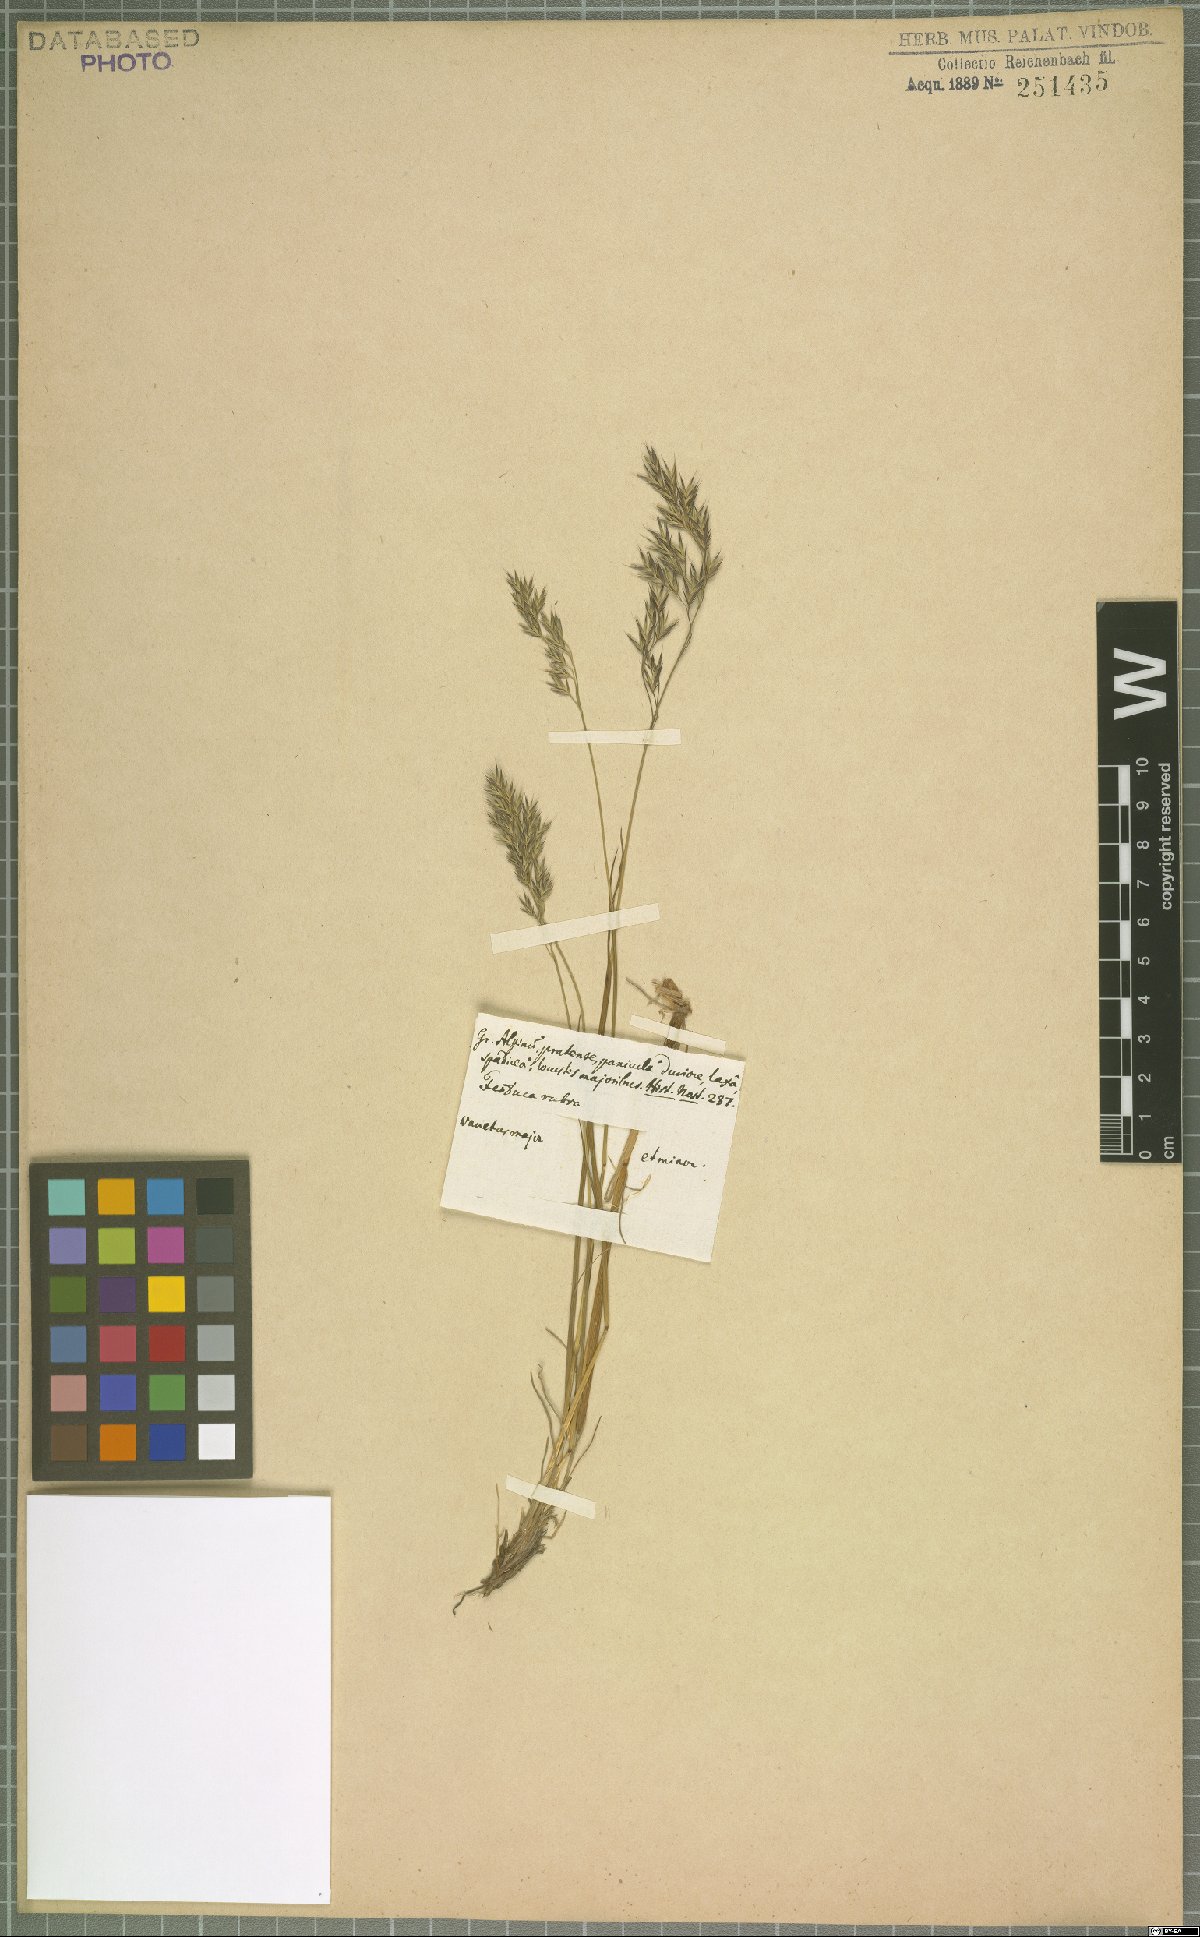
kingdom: Plantae
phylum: Tracheophyta
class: Liliopsida
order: Poales
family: Poaceae
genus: Festuca
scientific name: Festuca rubra
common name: Red fescue
